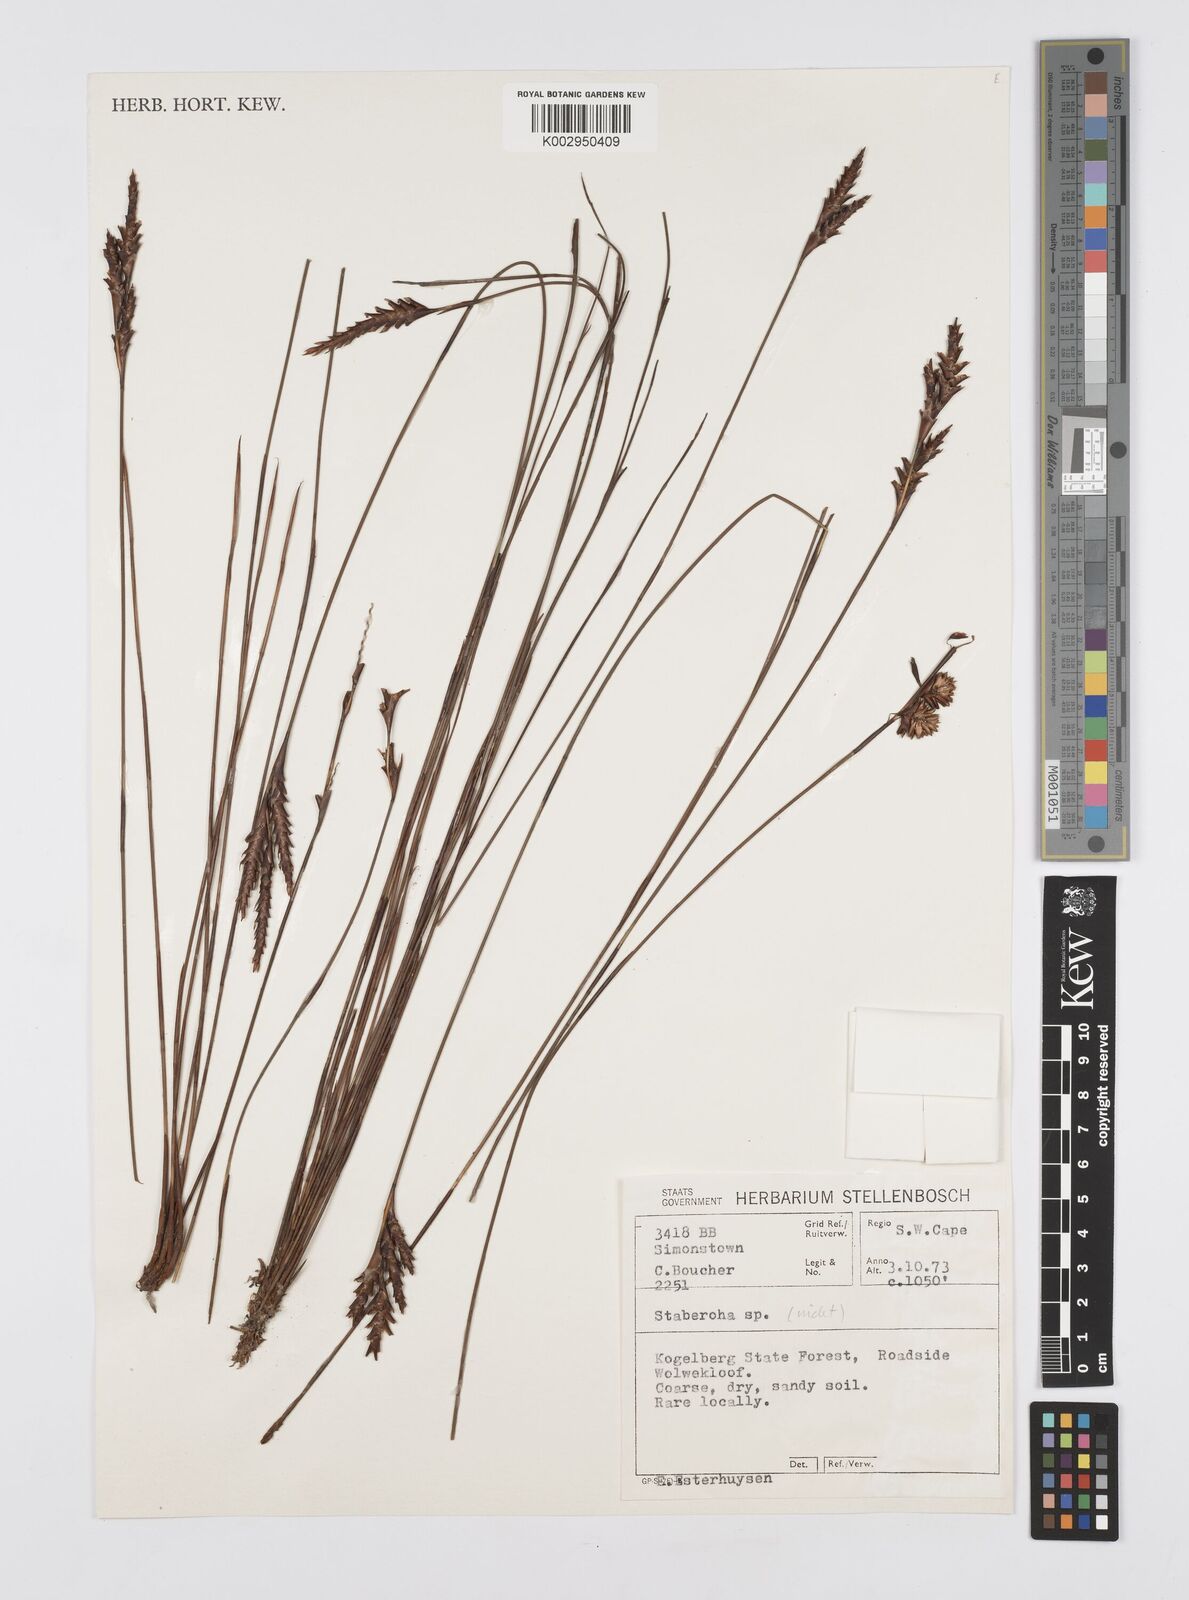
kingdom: Plantae
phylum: Tracheophyta
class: Liliopsida
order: Poales
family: Restionaceae
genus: Staberoha
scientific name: Staberoha
